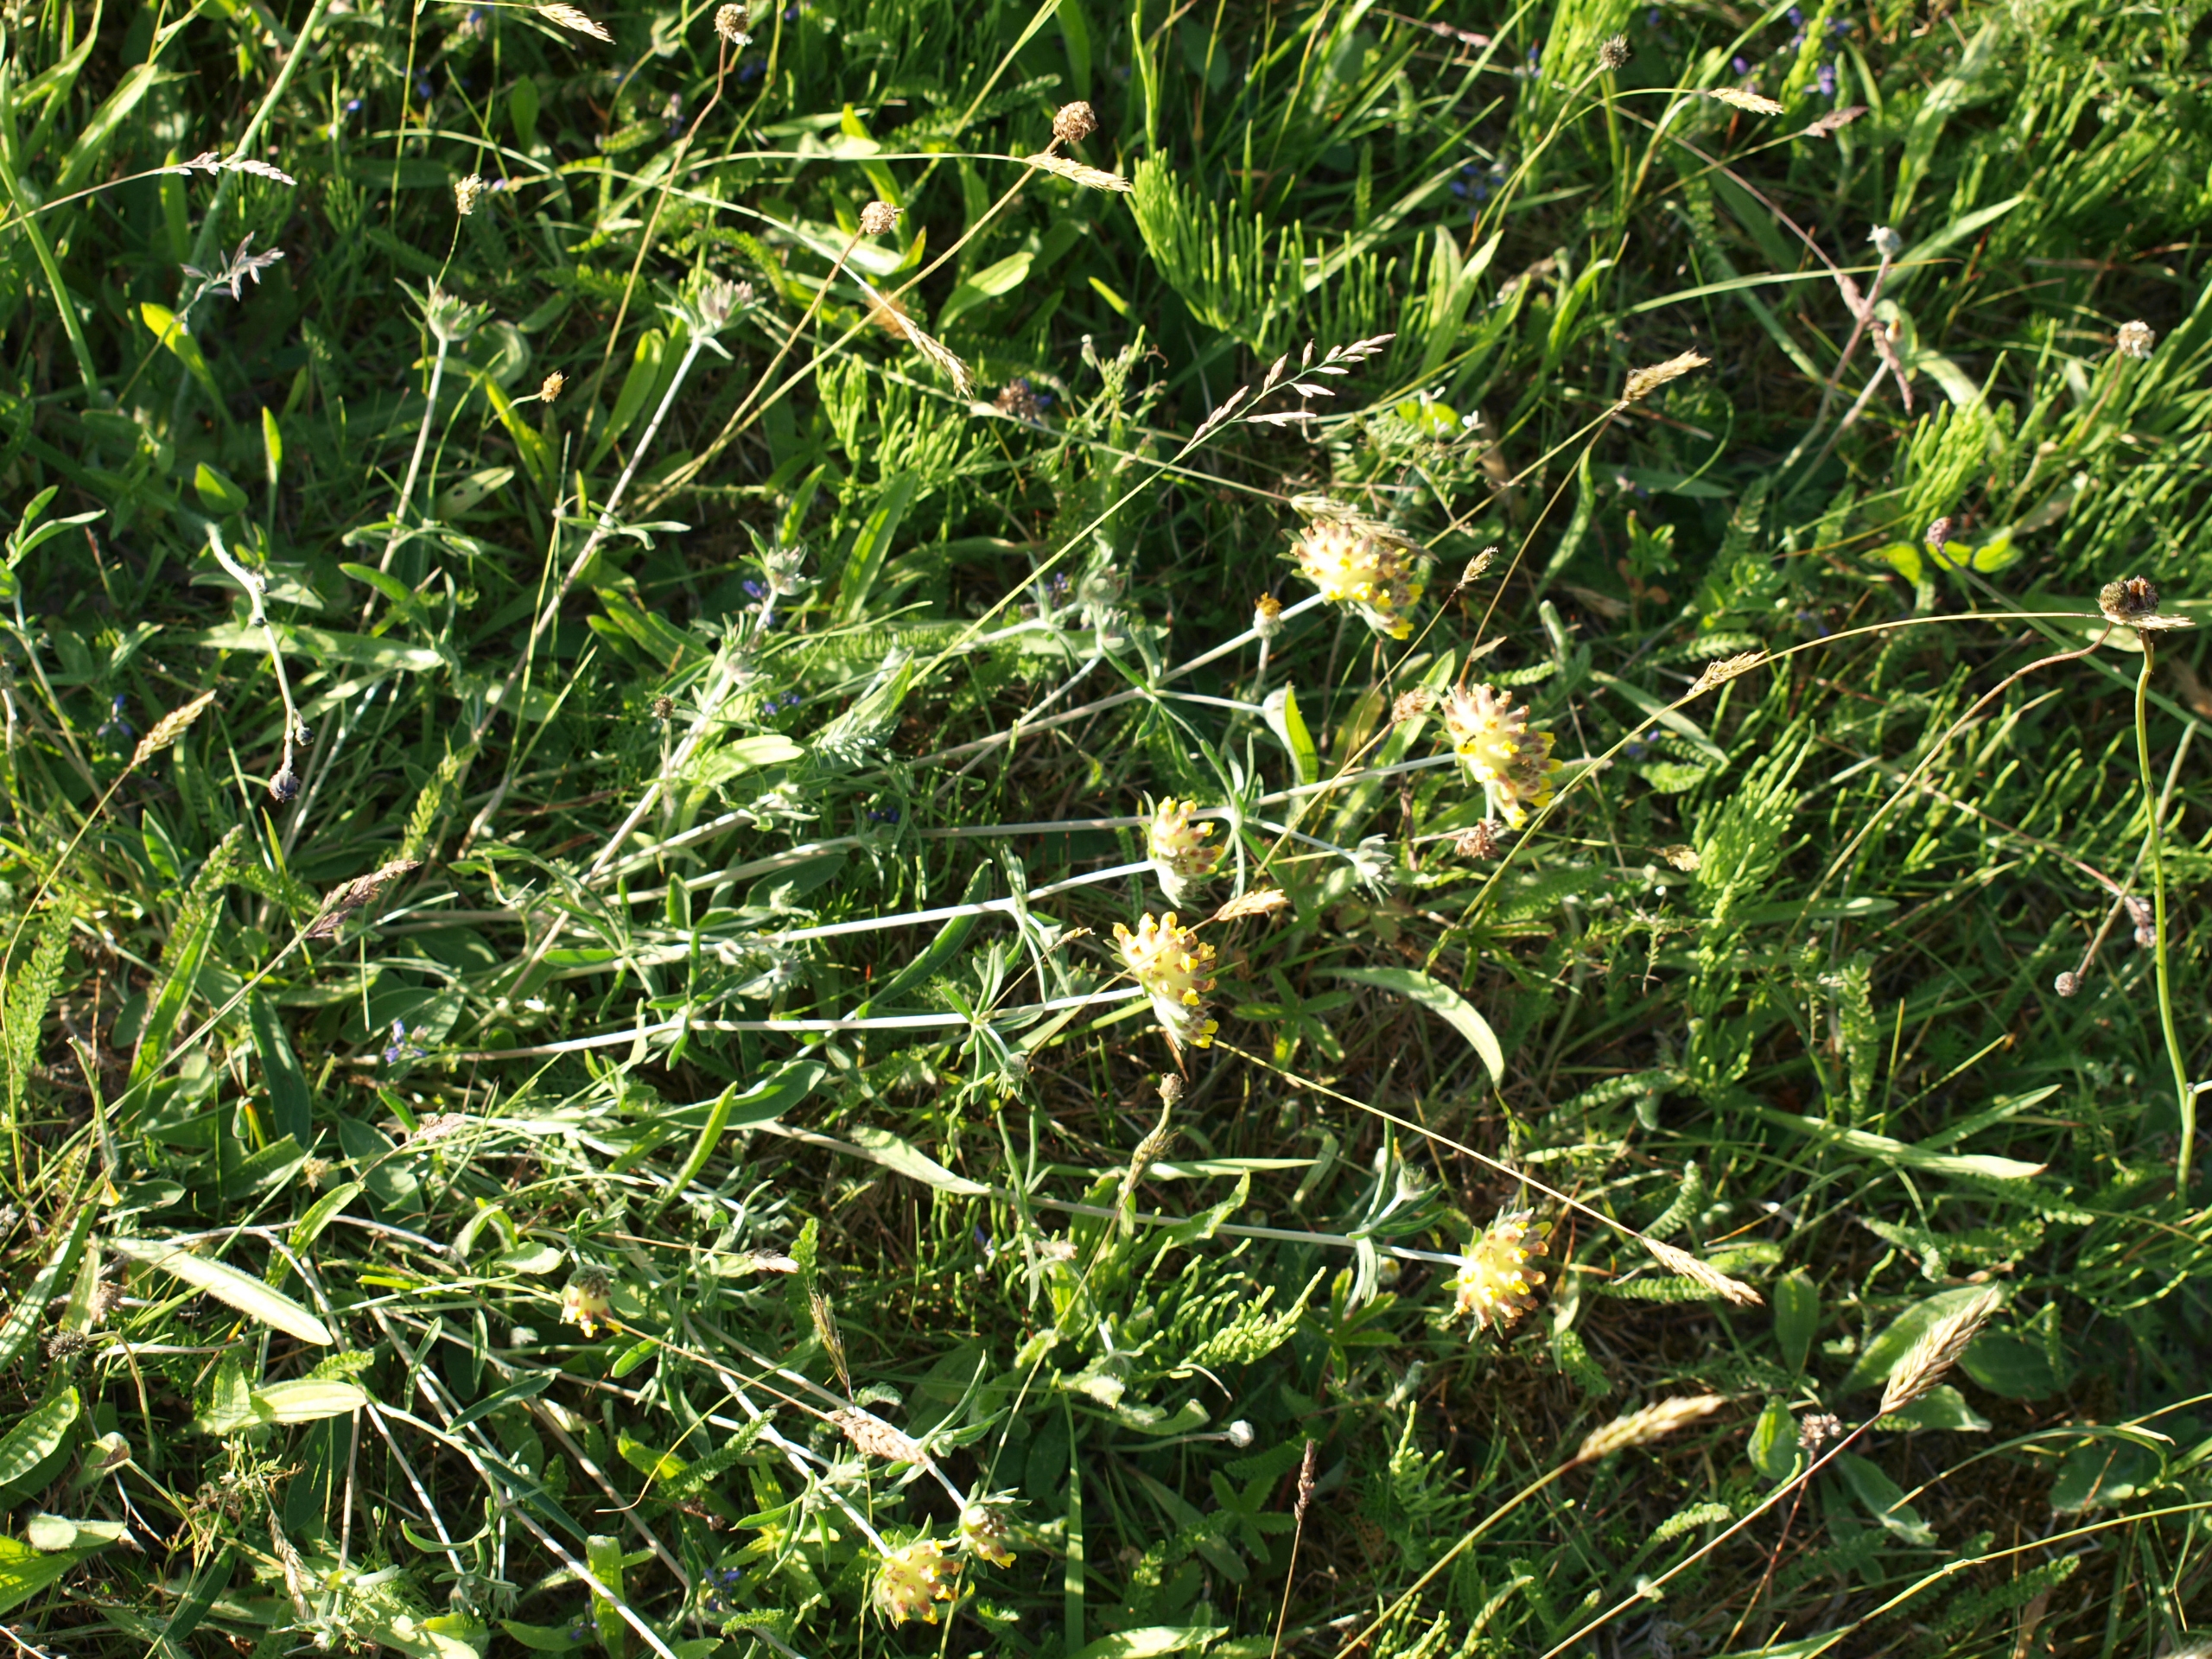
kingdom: Plantae
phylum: Tracheophyta
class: Magnoliopsida
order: Fabales
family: Fabaceae
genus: Anthyllis
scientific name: Anthyllis vulneraria
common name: Rundbælg
